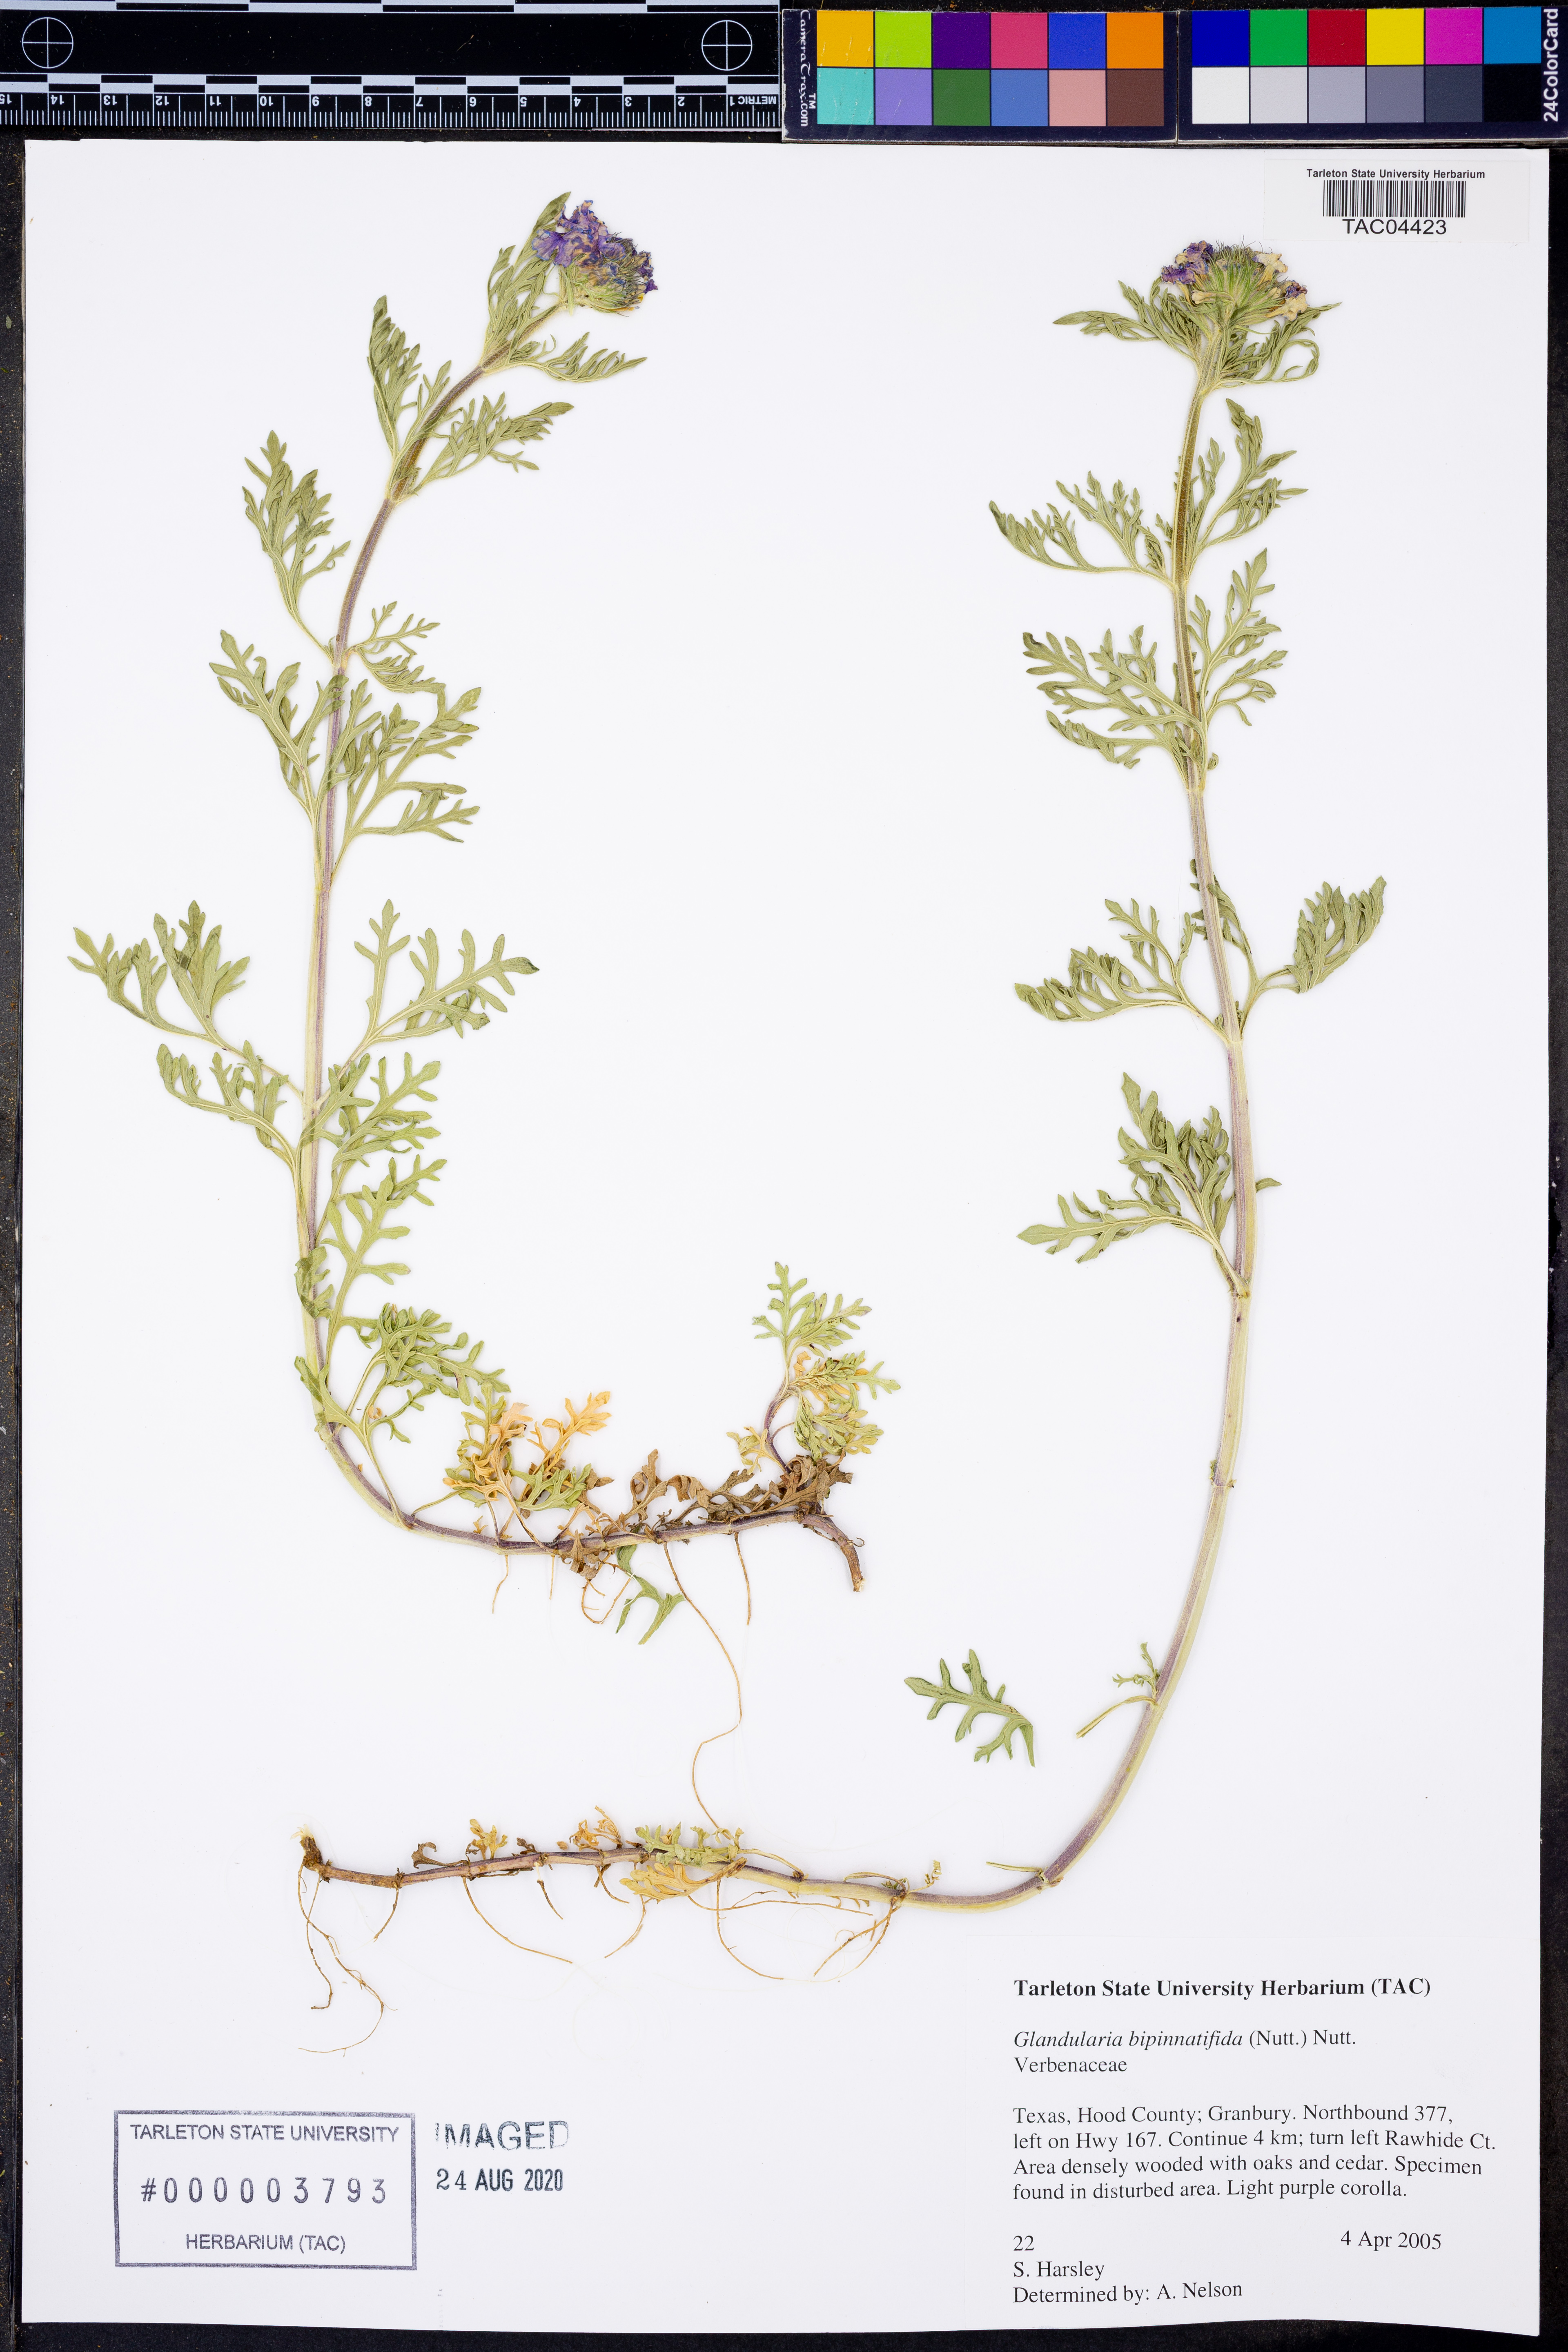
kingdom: Plantae
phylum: Tracheophyta
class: Magnoliopsida
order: Lamiales
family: Verbenaceae
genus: Verbena
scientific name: Verbena bipinnatifida
